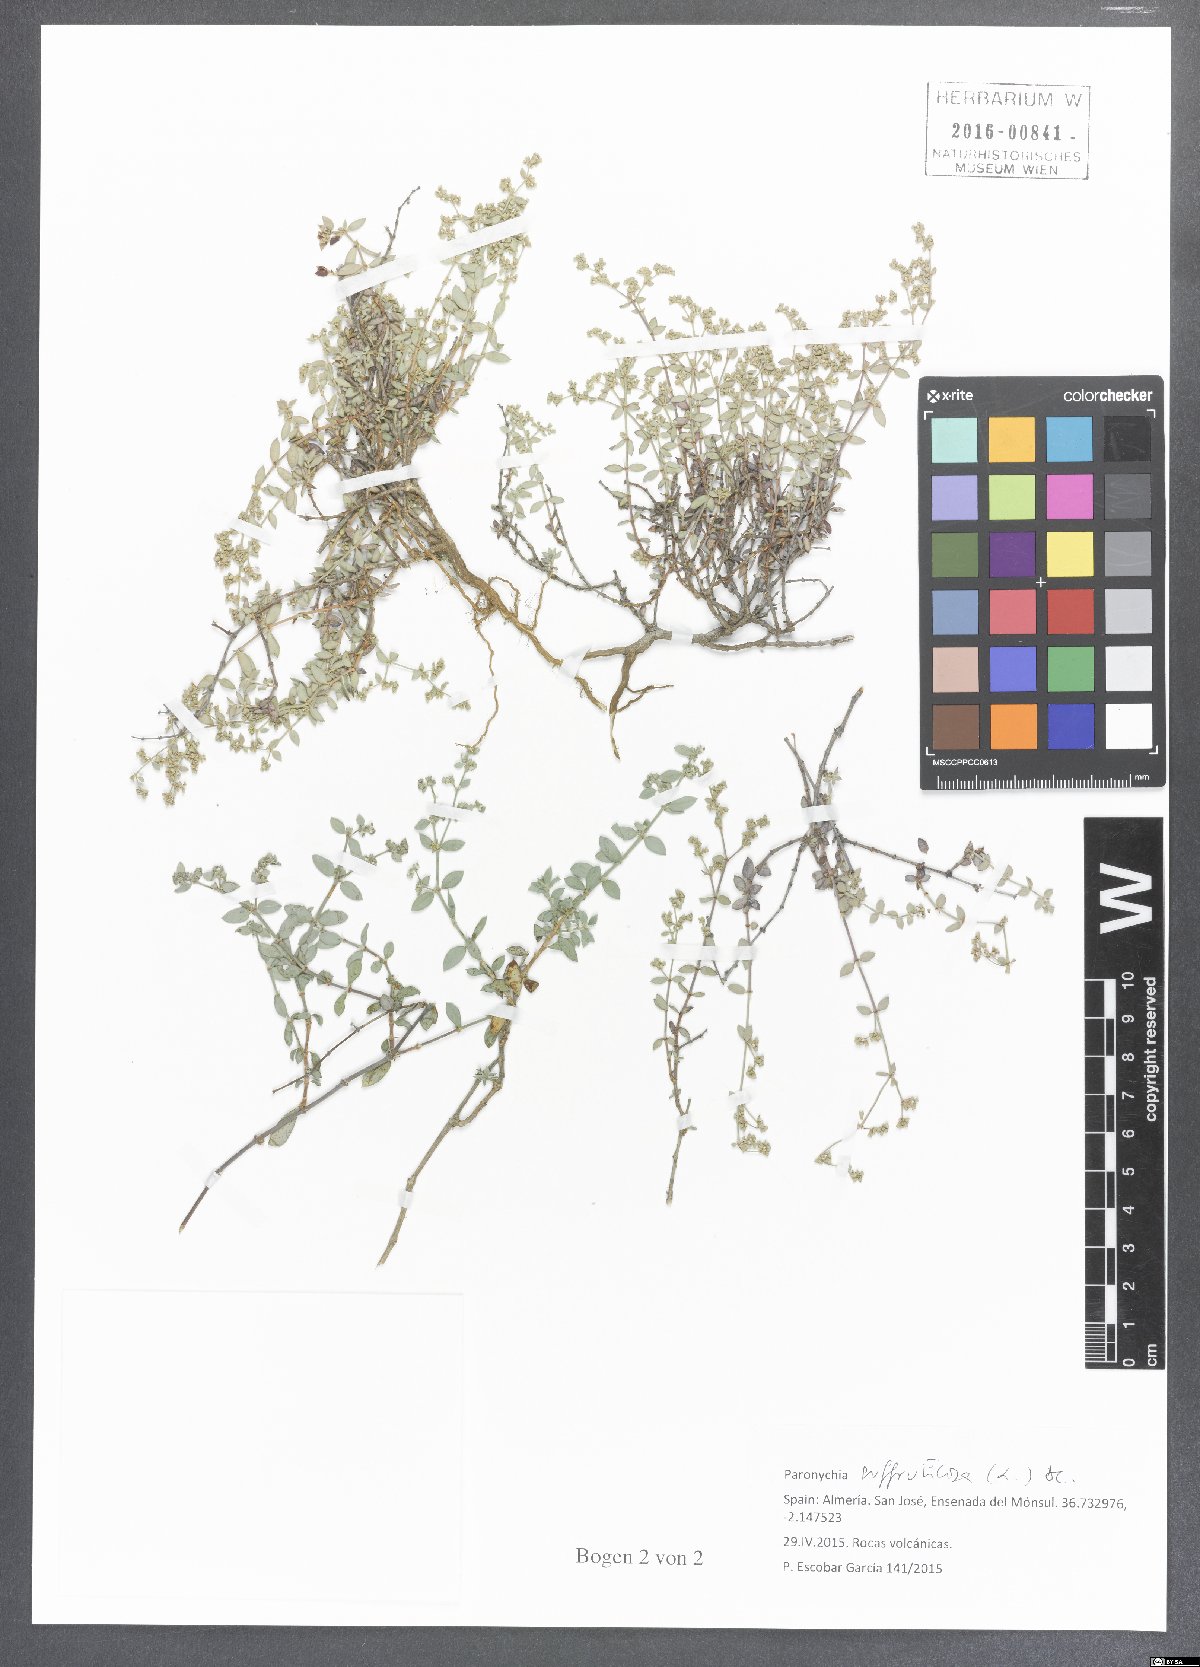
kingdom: Plantae
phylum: Tracheophyta
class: Magnoliopsida
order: Caryophyllales
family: Caryophyllaceae
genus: Paronychia
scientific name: Paronychia suffruticosa
